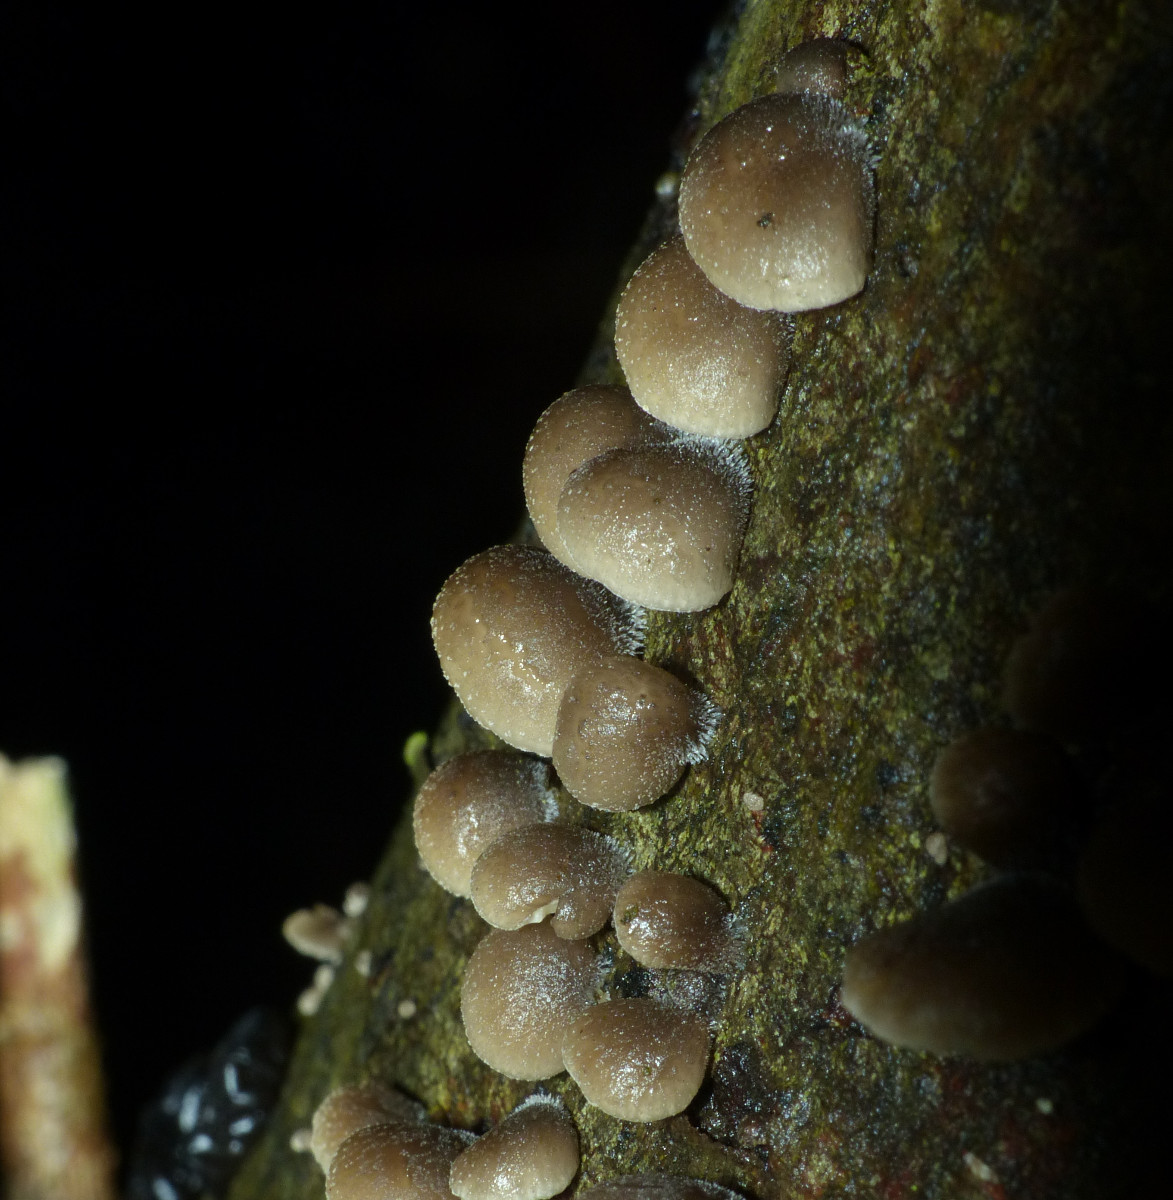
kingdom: Fungi
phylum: Basidiomycota
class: Agaricomycetes
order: Agaricales
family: Pleurotaceae
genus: Resupinatus
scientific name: Resupinatus applicatus
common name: lysfiltet barkhat
